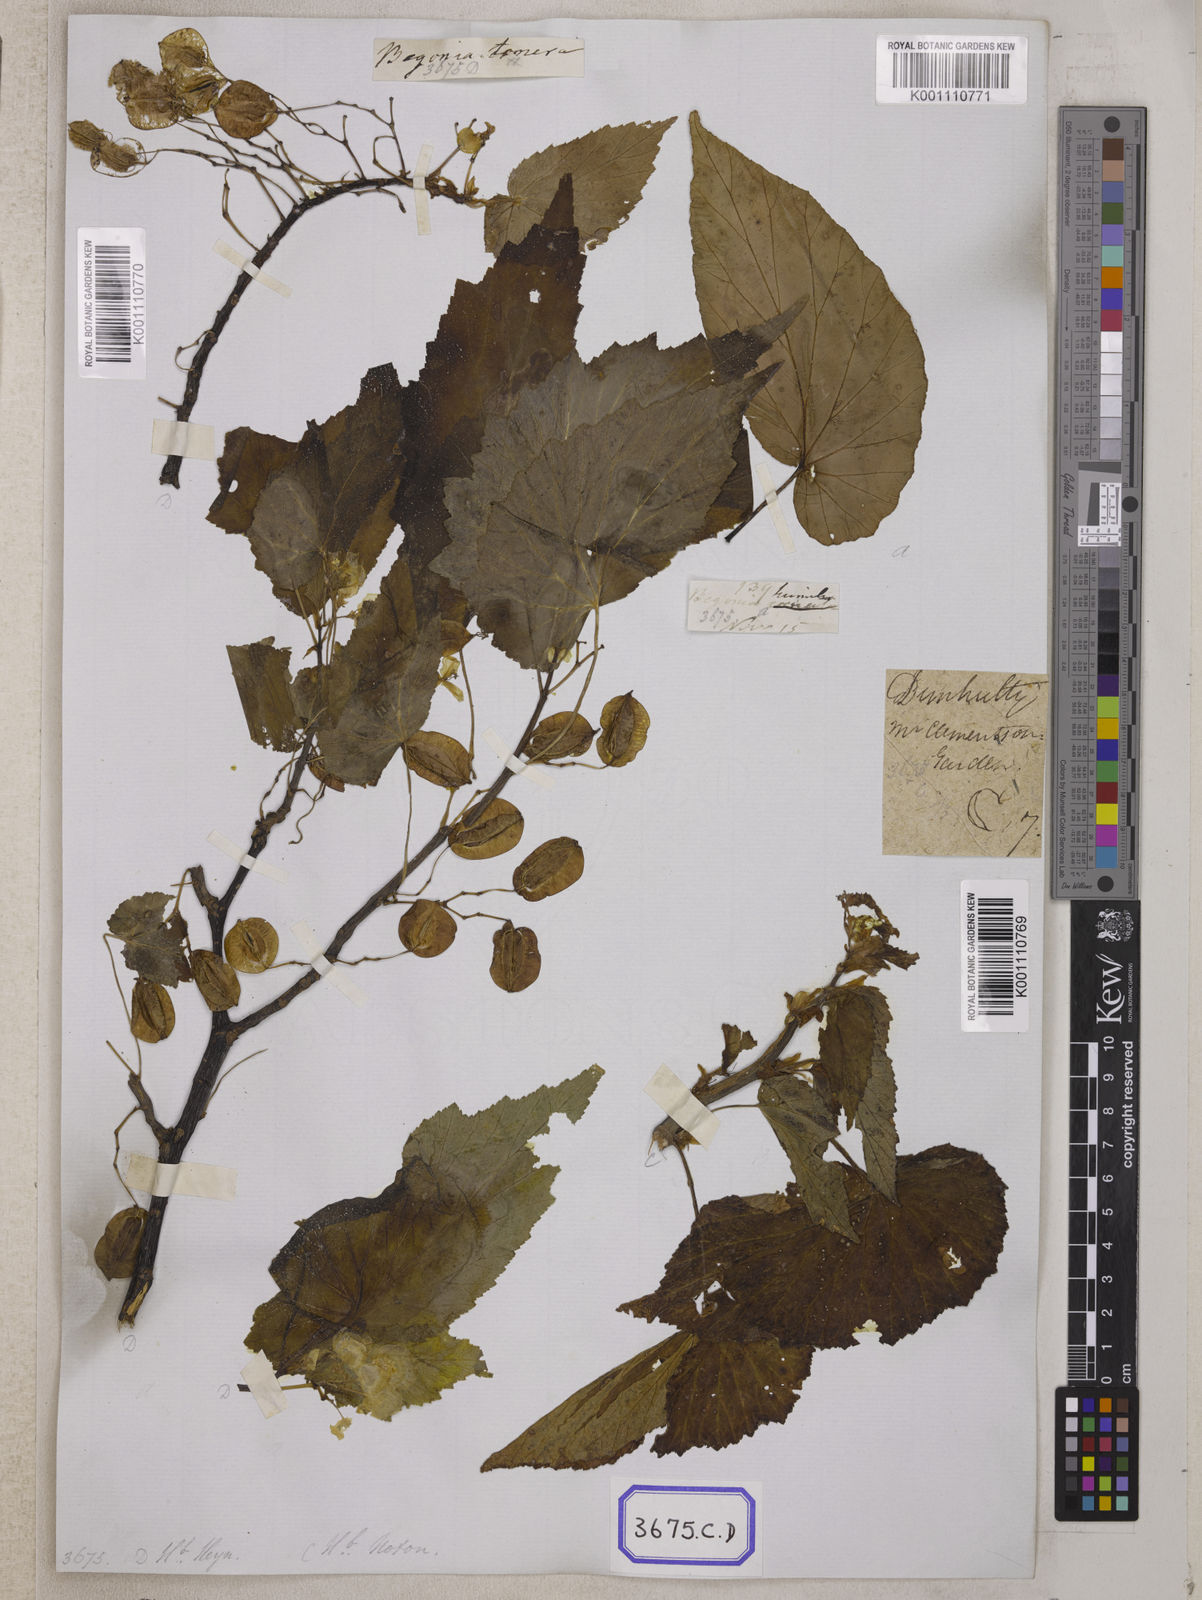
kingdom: Plantae
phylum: Tracheophyta
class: Magnoliopsida
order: Cucurbitales
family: Begoniaceae
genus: Begonia
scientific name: Begonia
